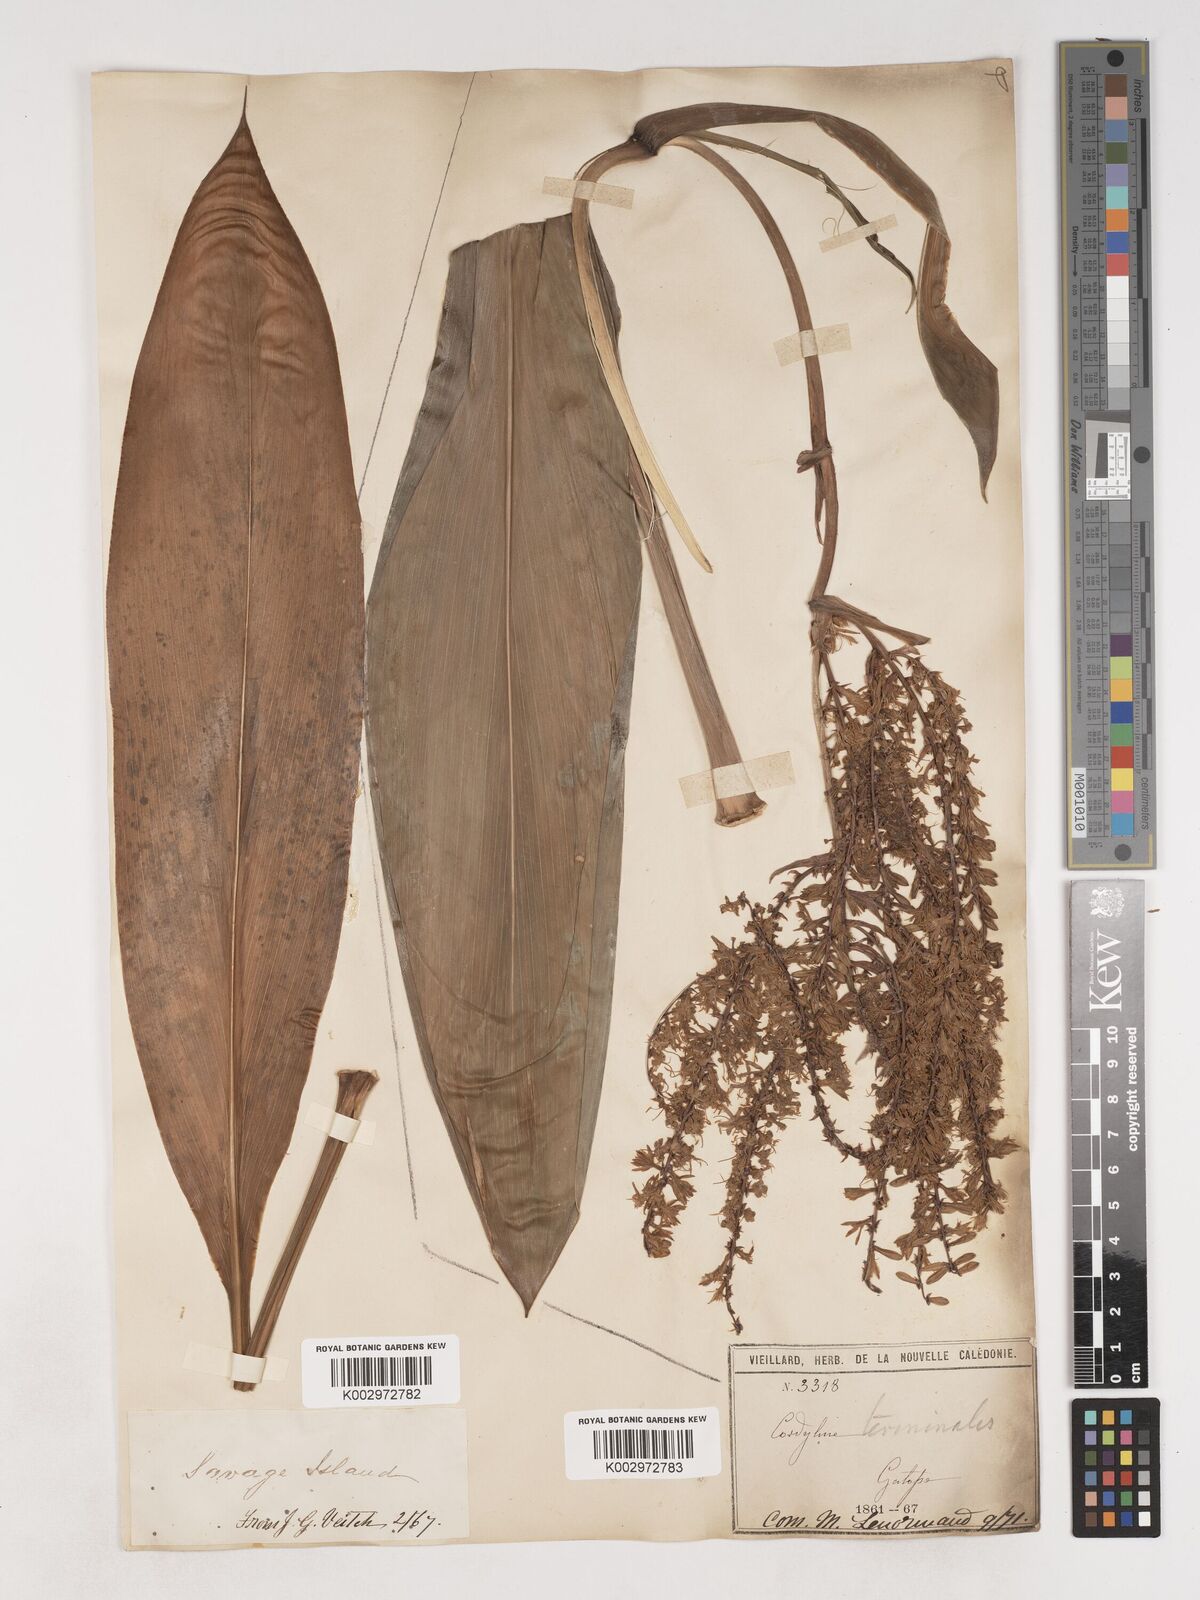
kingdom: Plantae
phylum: Tracheophyta
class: Liliopsida
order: Asparagales
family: Asparagaceae
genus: Cordyline
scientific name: Cordyline fruticosa
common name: Good-luck-plant
